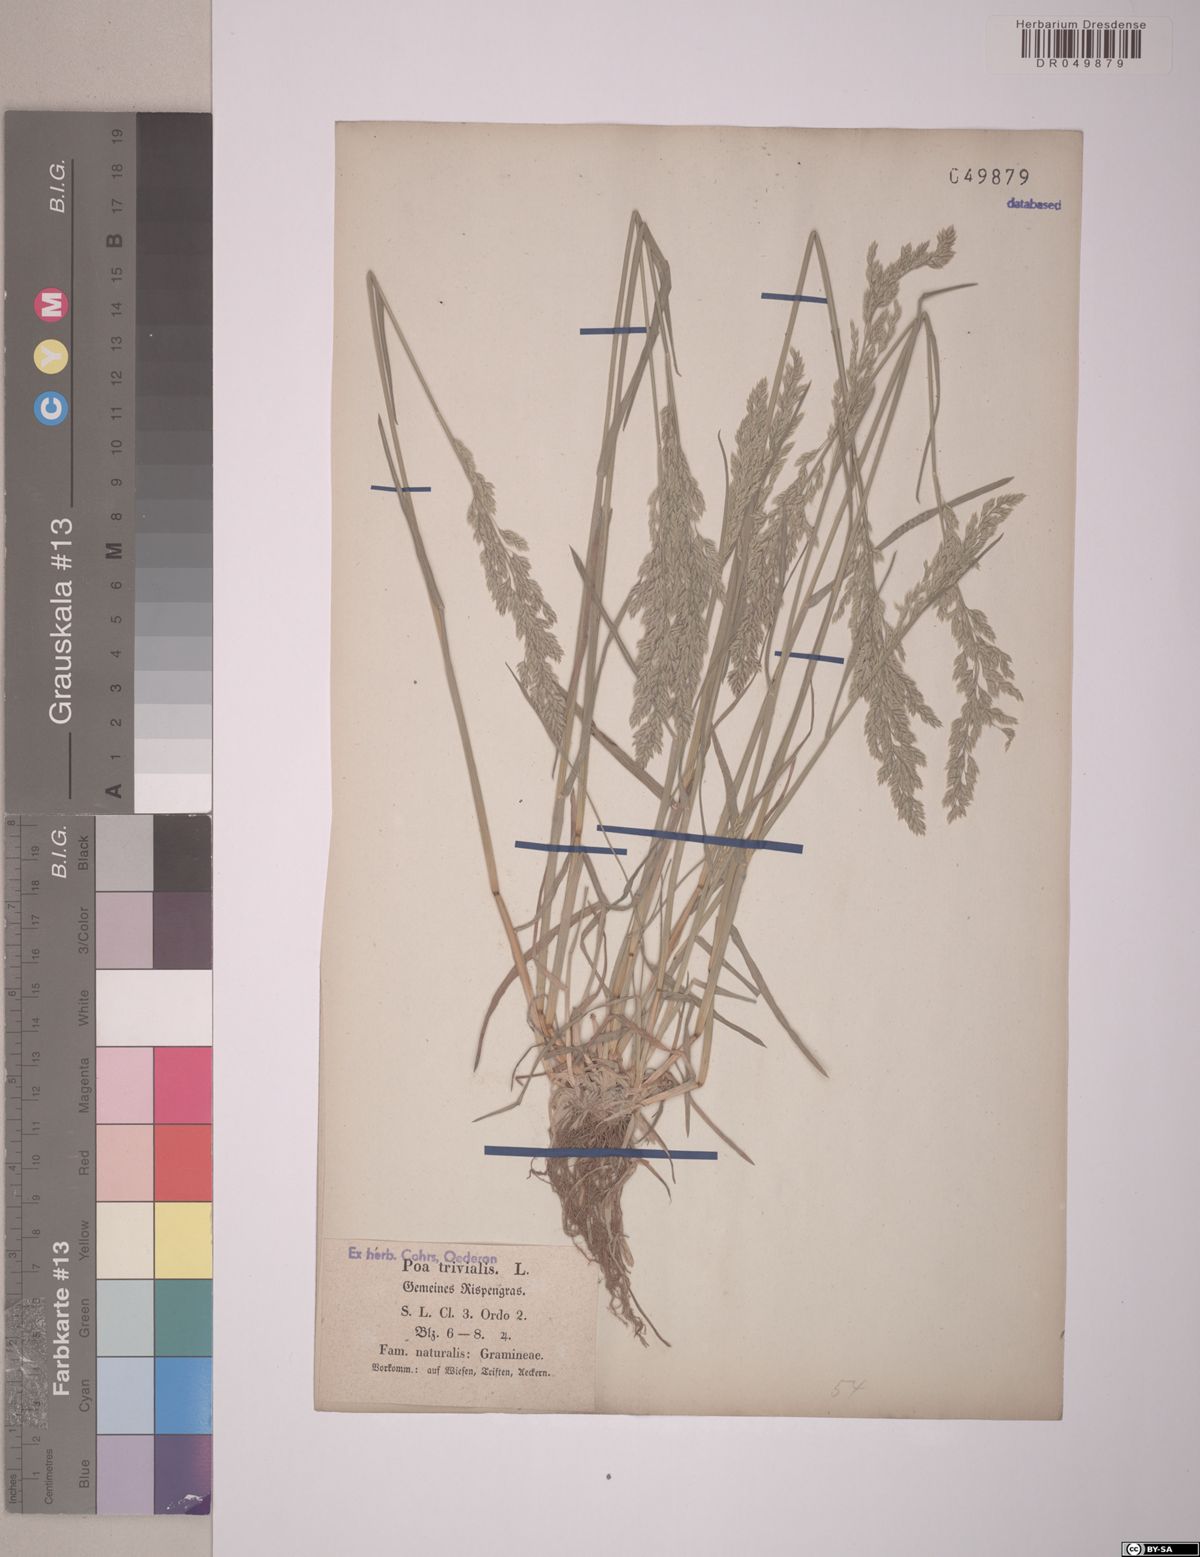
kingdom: Plantae
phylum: Tracheophyta
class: Liliopsida
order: Poales
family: Poaceae
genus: Poa
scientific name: Poa trivialis
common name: Rough bluegrass
